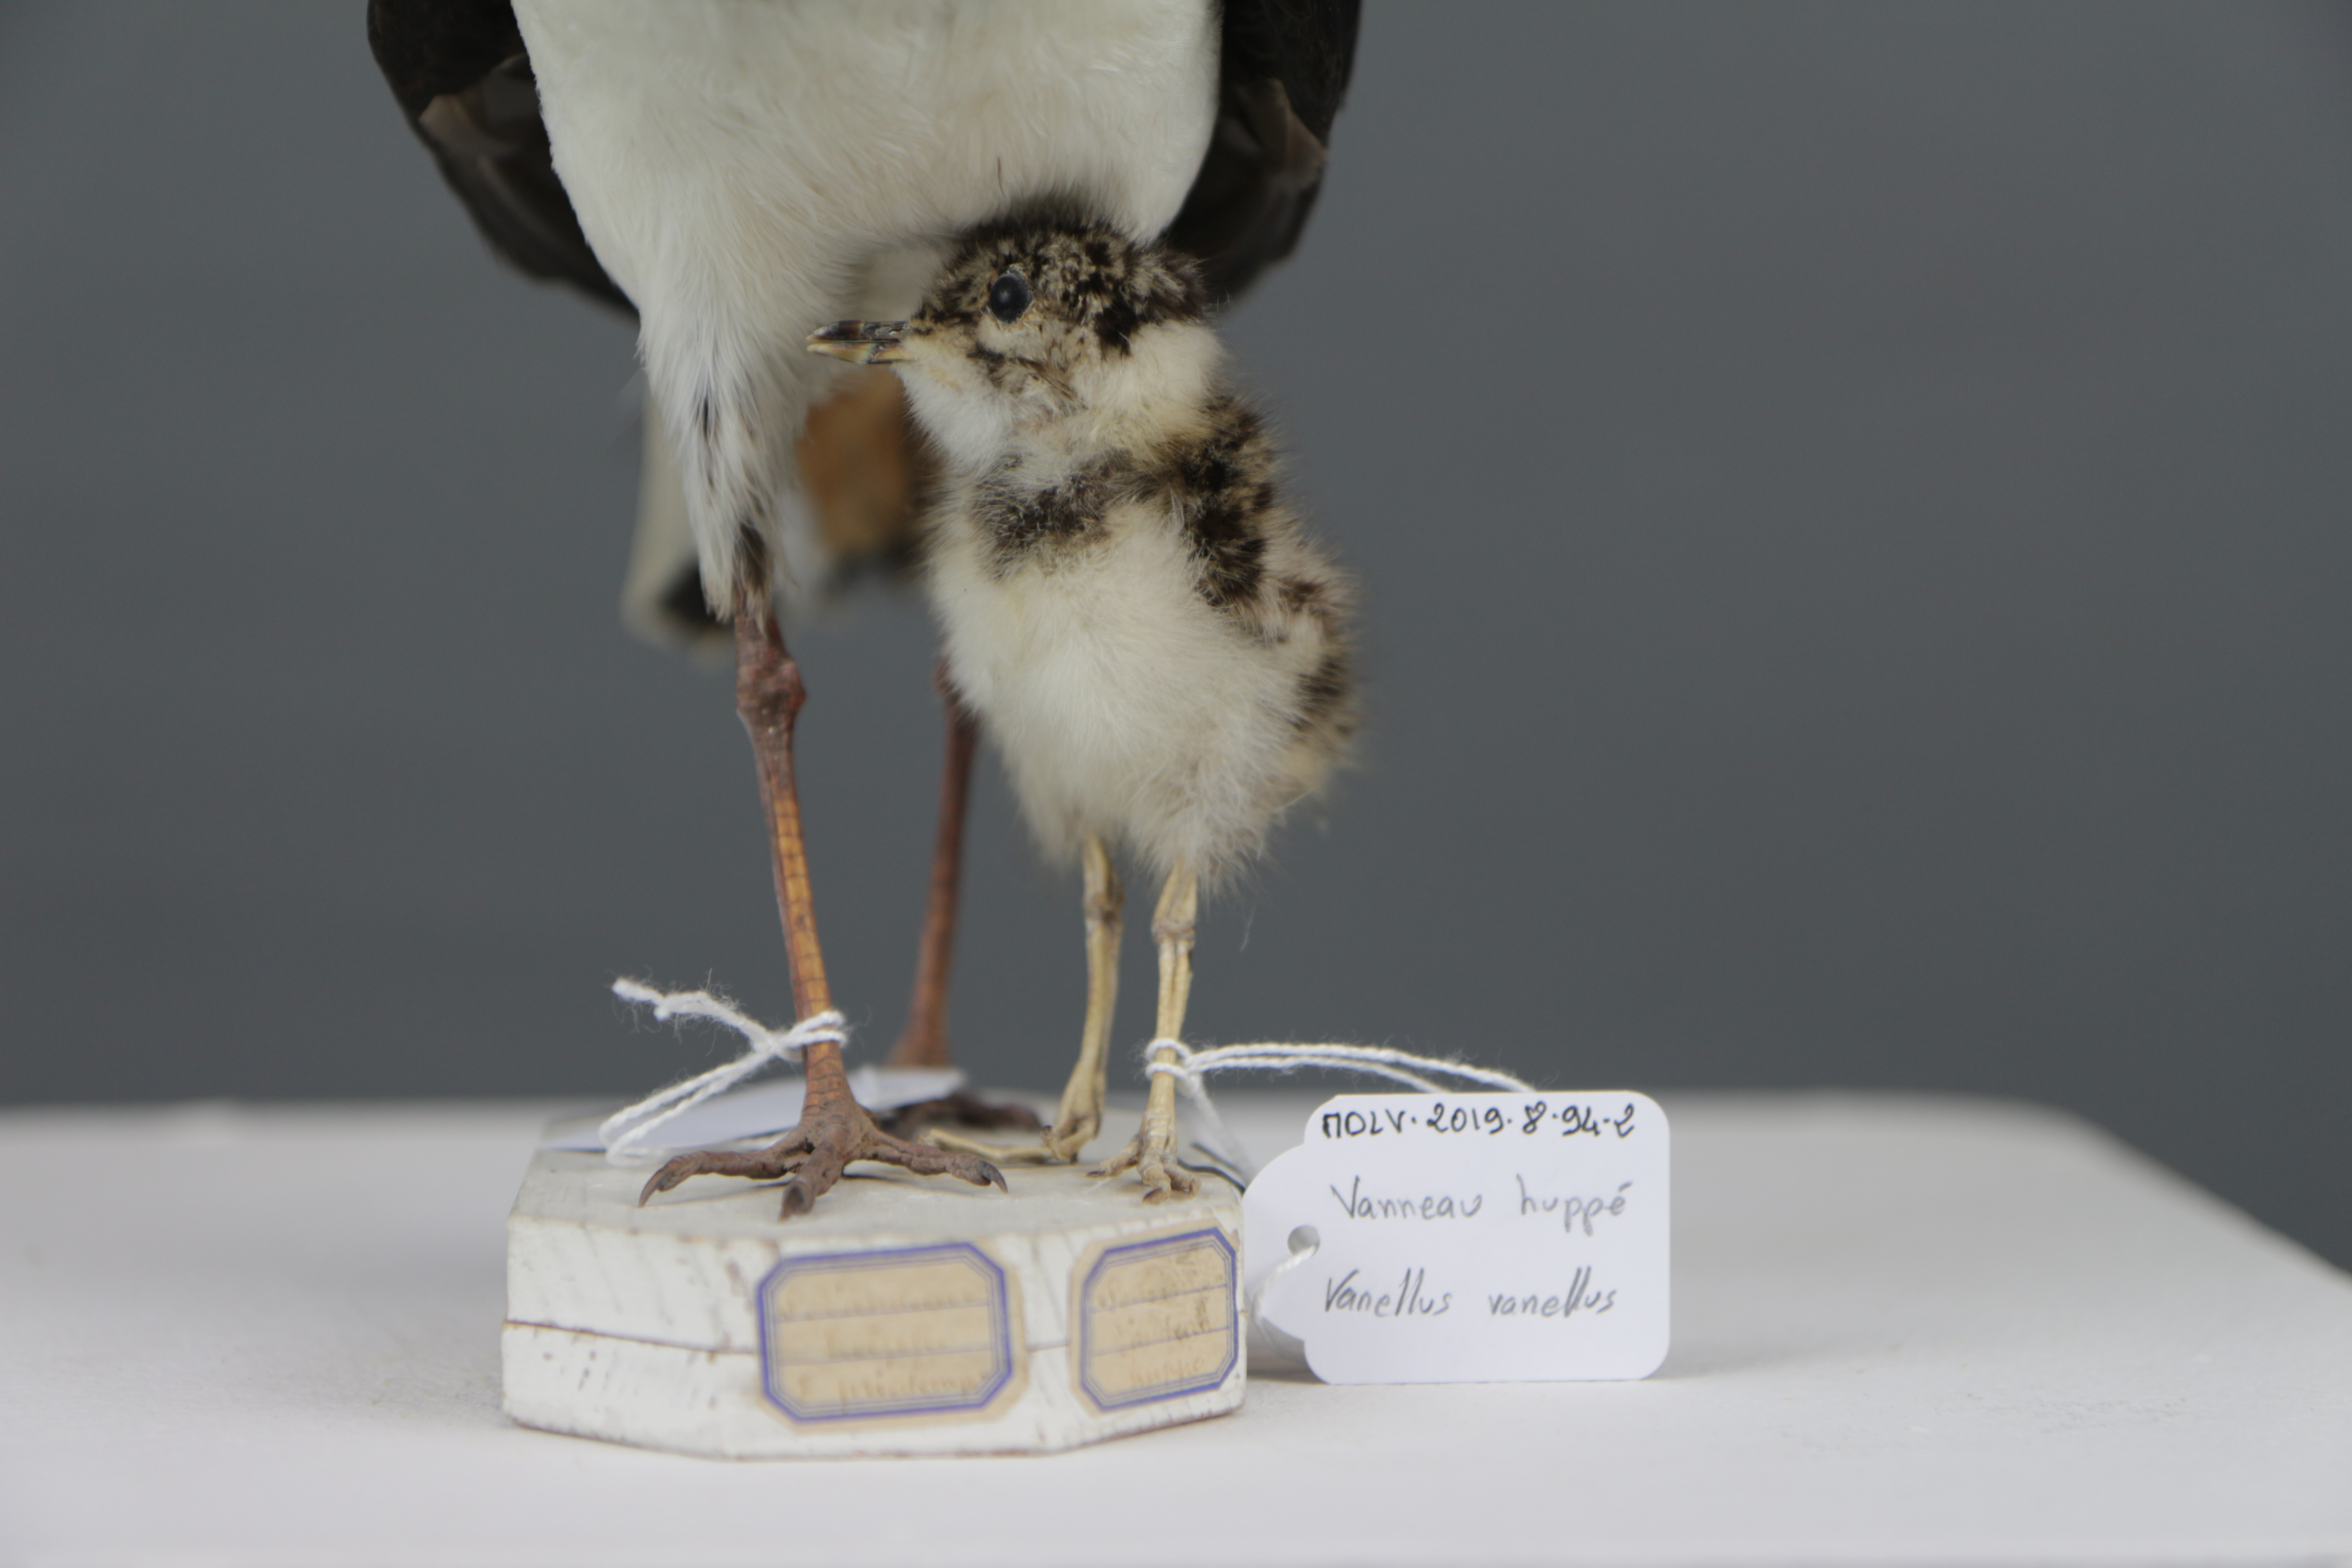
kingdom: Animalia
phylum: Chordata
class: Aves
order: Charadriiformes
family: Charadriidae
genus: Vanellus
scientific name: Vanellus vanellus
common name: Northern lapwing
